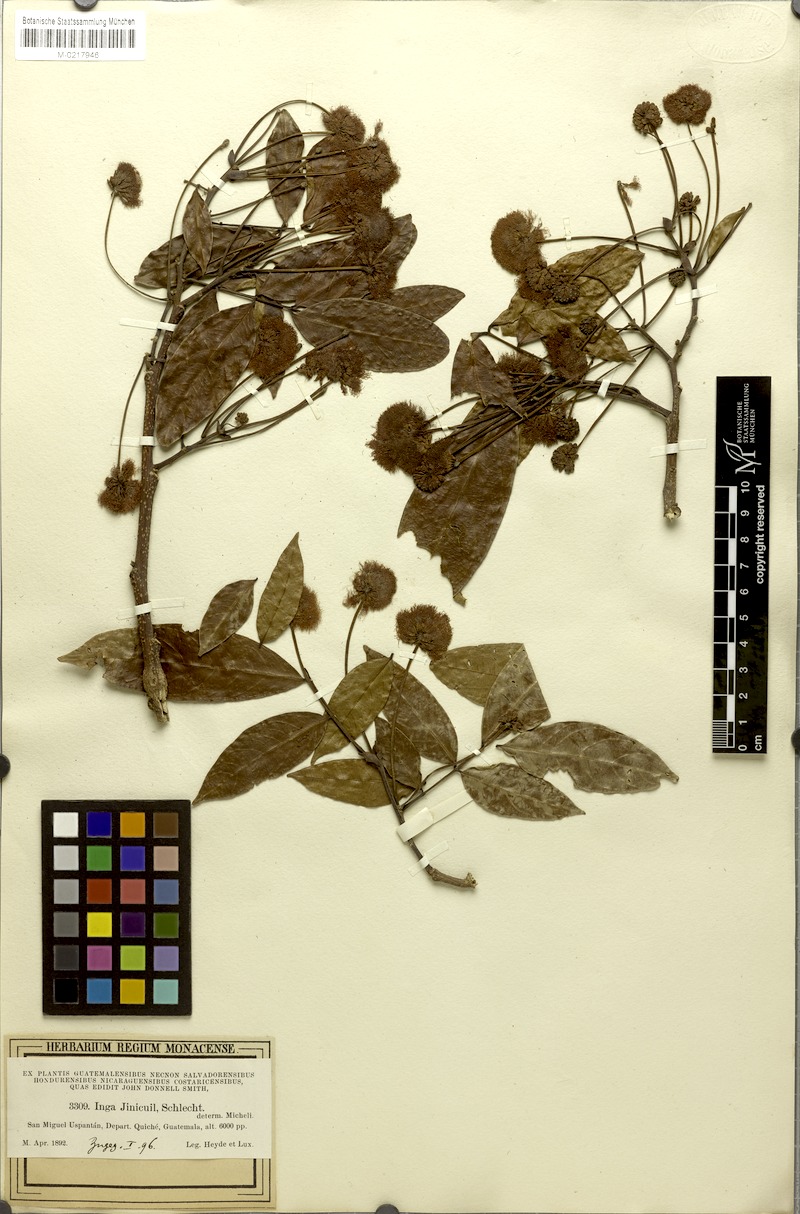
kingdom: Plantae
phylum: Tracheophyta
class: Magnoliopsida
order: Fabales
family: Fabaceae
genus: Inga
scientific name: Inga paterno
